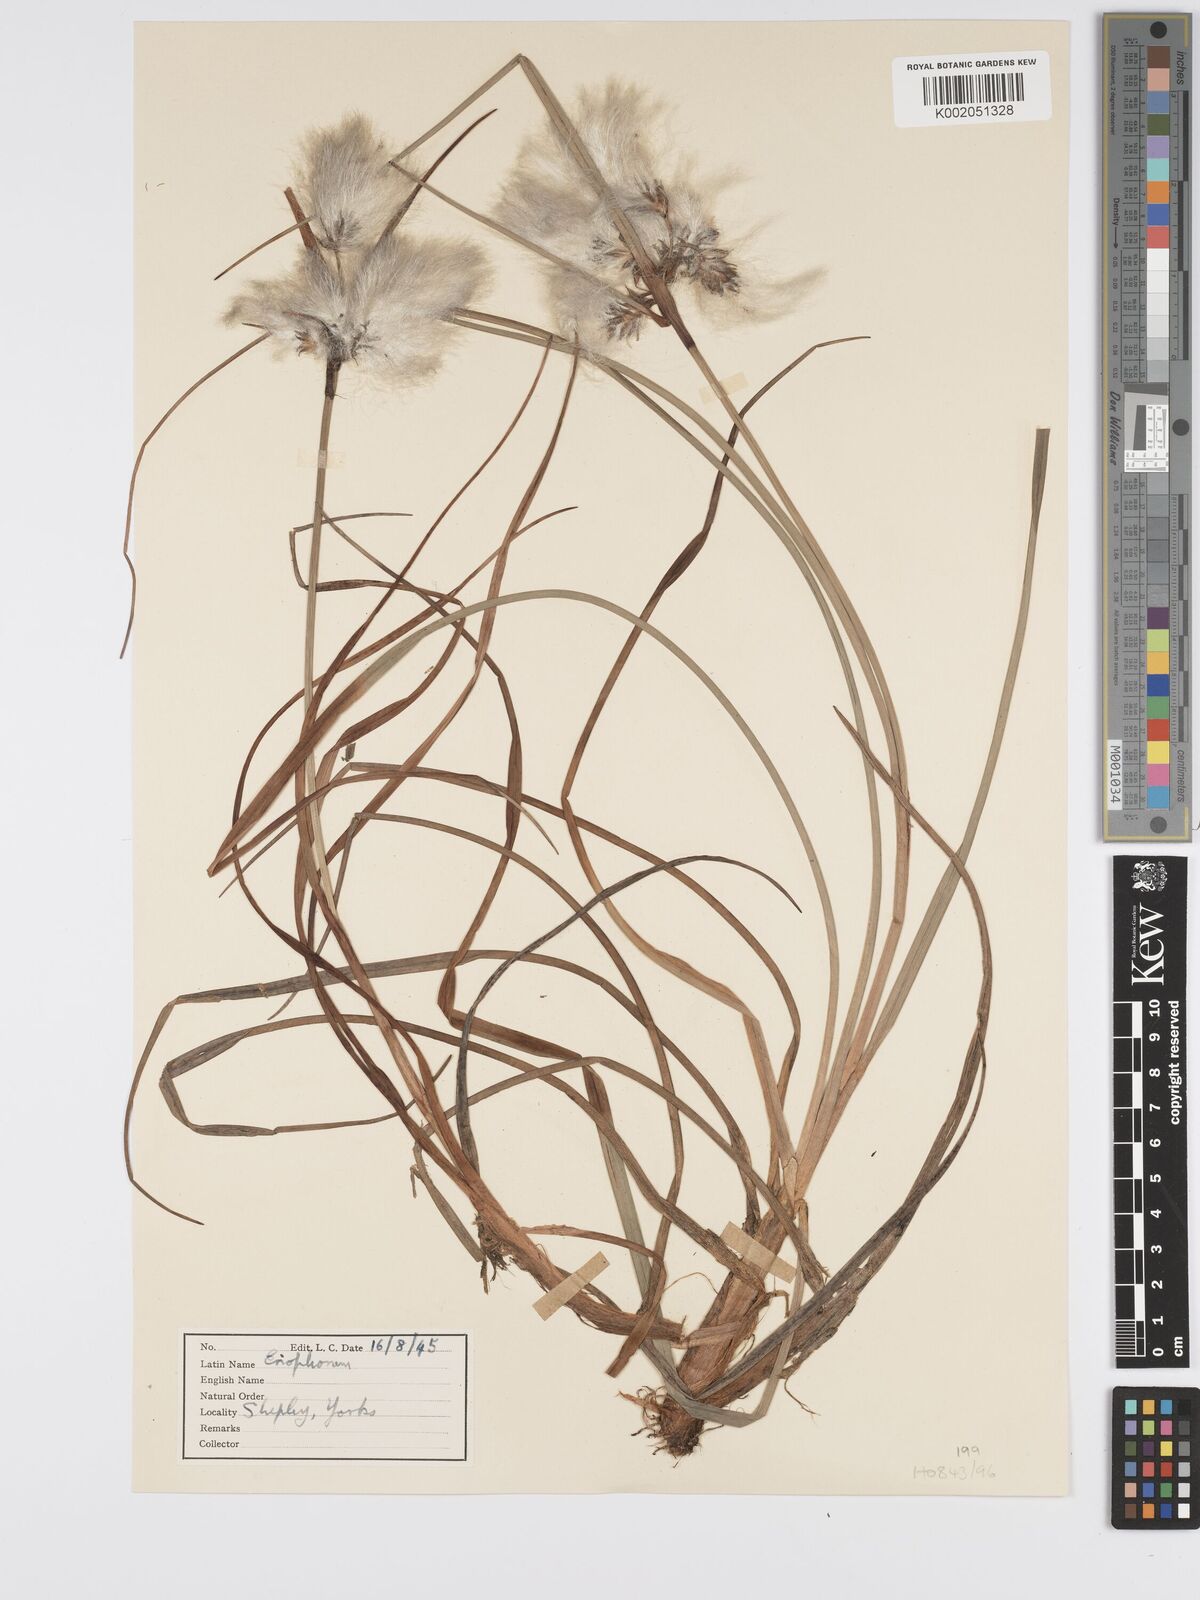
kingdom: Plantae
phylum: Tracheophyta
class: Liliopsida
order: Poales
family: Cyperaceae
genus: Eriophorum
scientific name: Eriophorum
